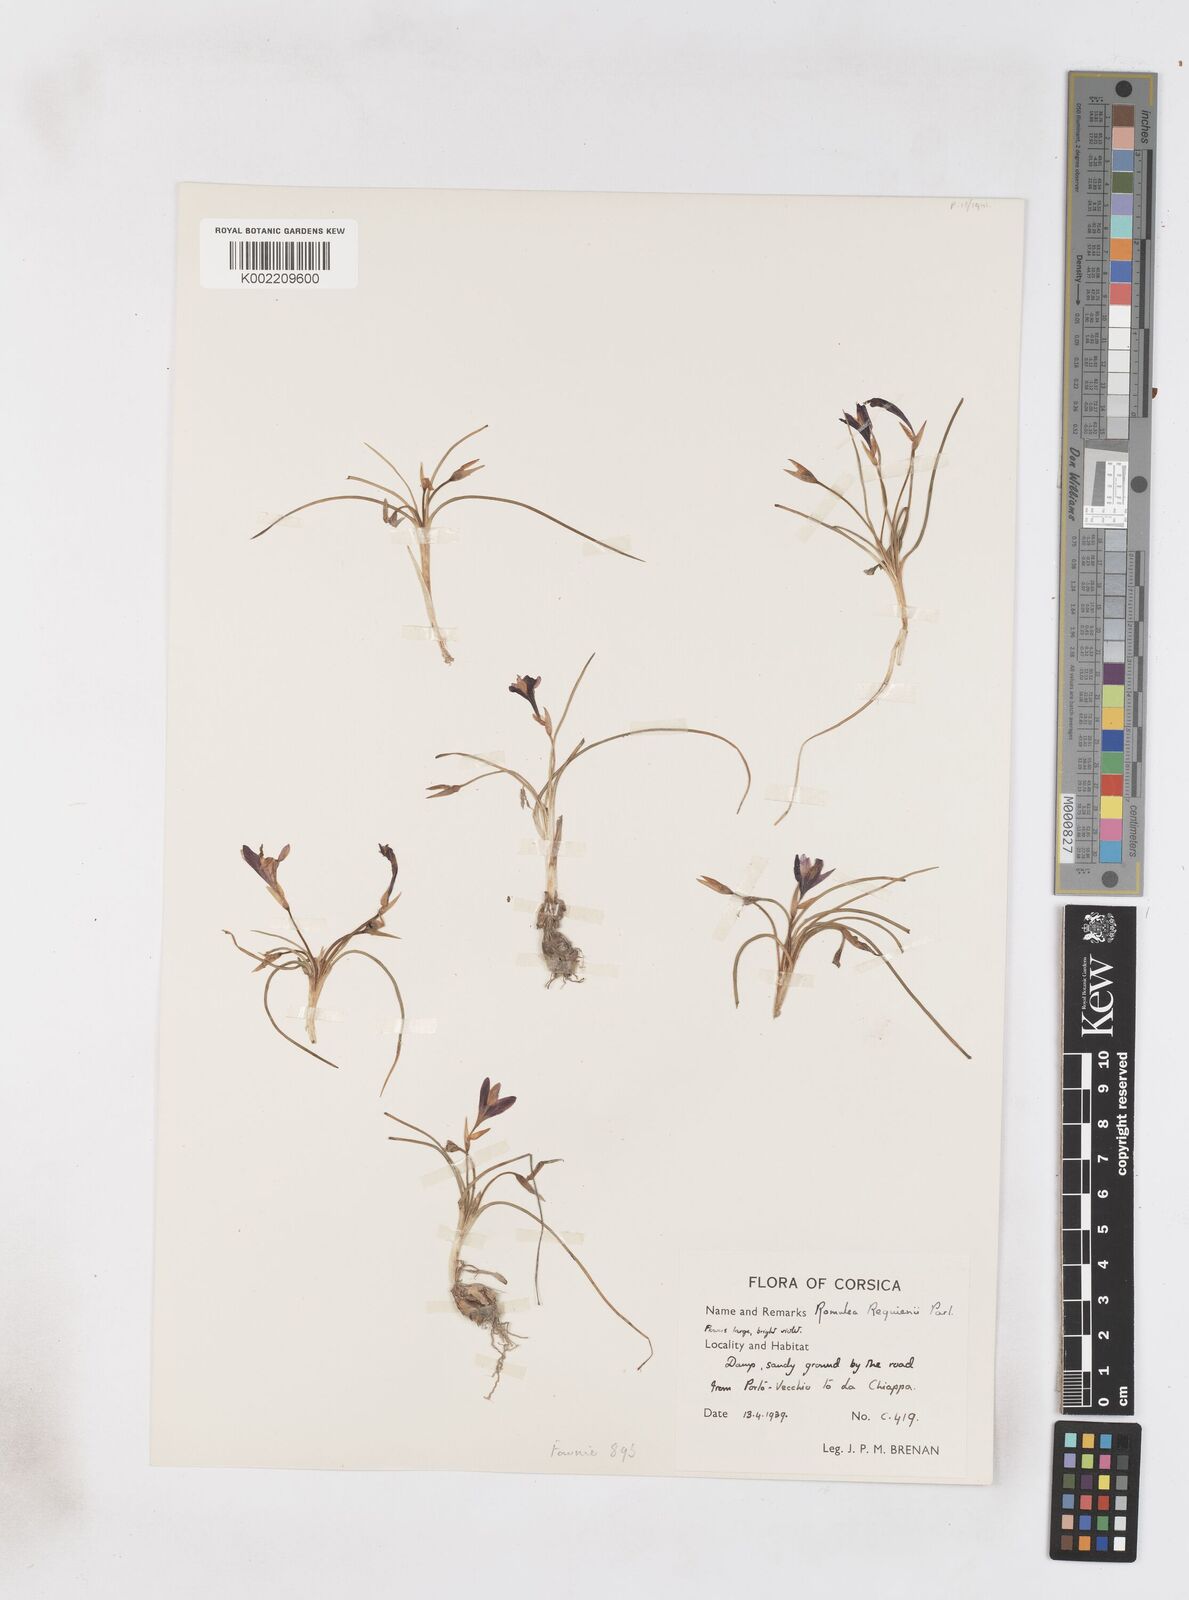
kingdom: Plantae
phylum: Tracheophyta
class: Liliopsida
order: Asparagales
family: Iridaceae
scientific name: Iridaceae
